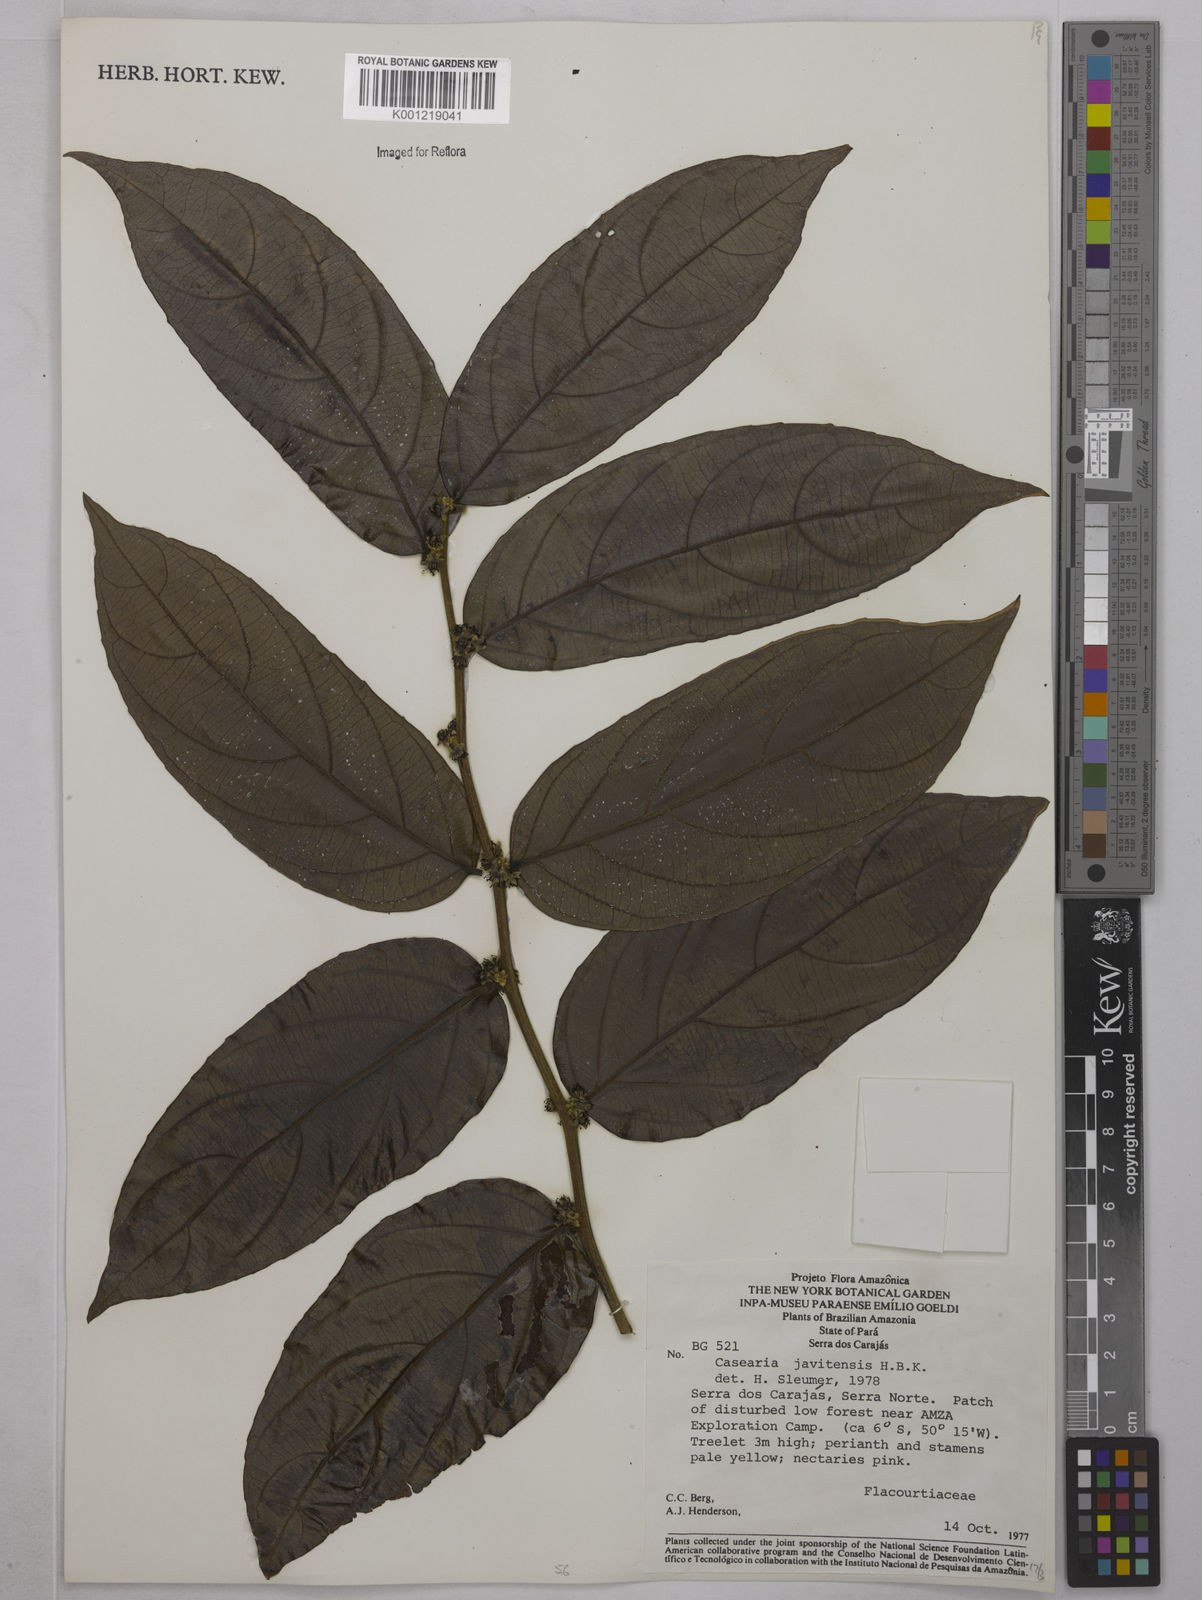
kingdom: Plantae
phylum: Tracheophyta
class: Magnoliopsida
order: Malpighiales
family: Salicaceae
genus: Piparea
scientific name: Piparea multiflora
